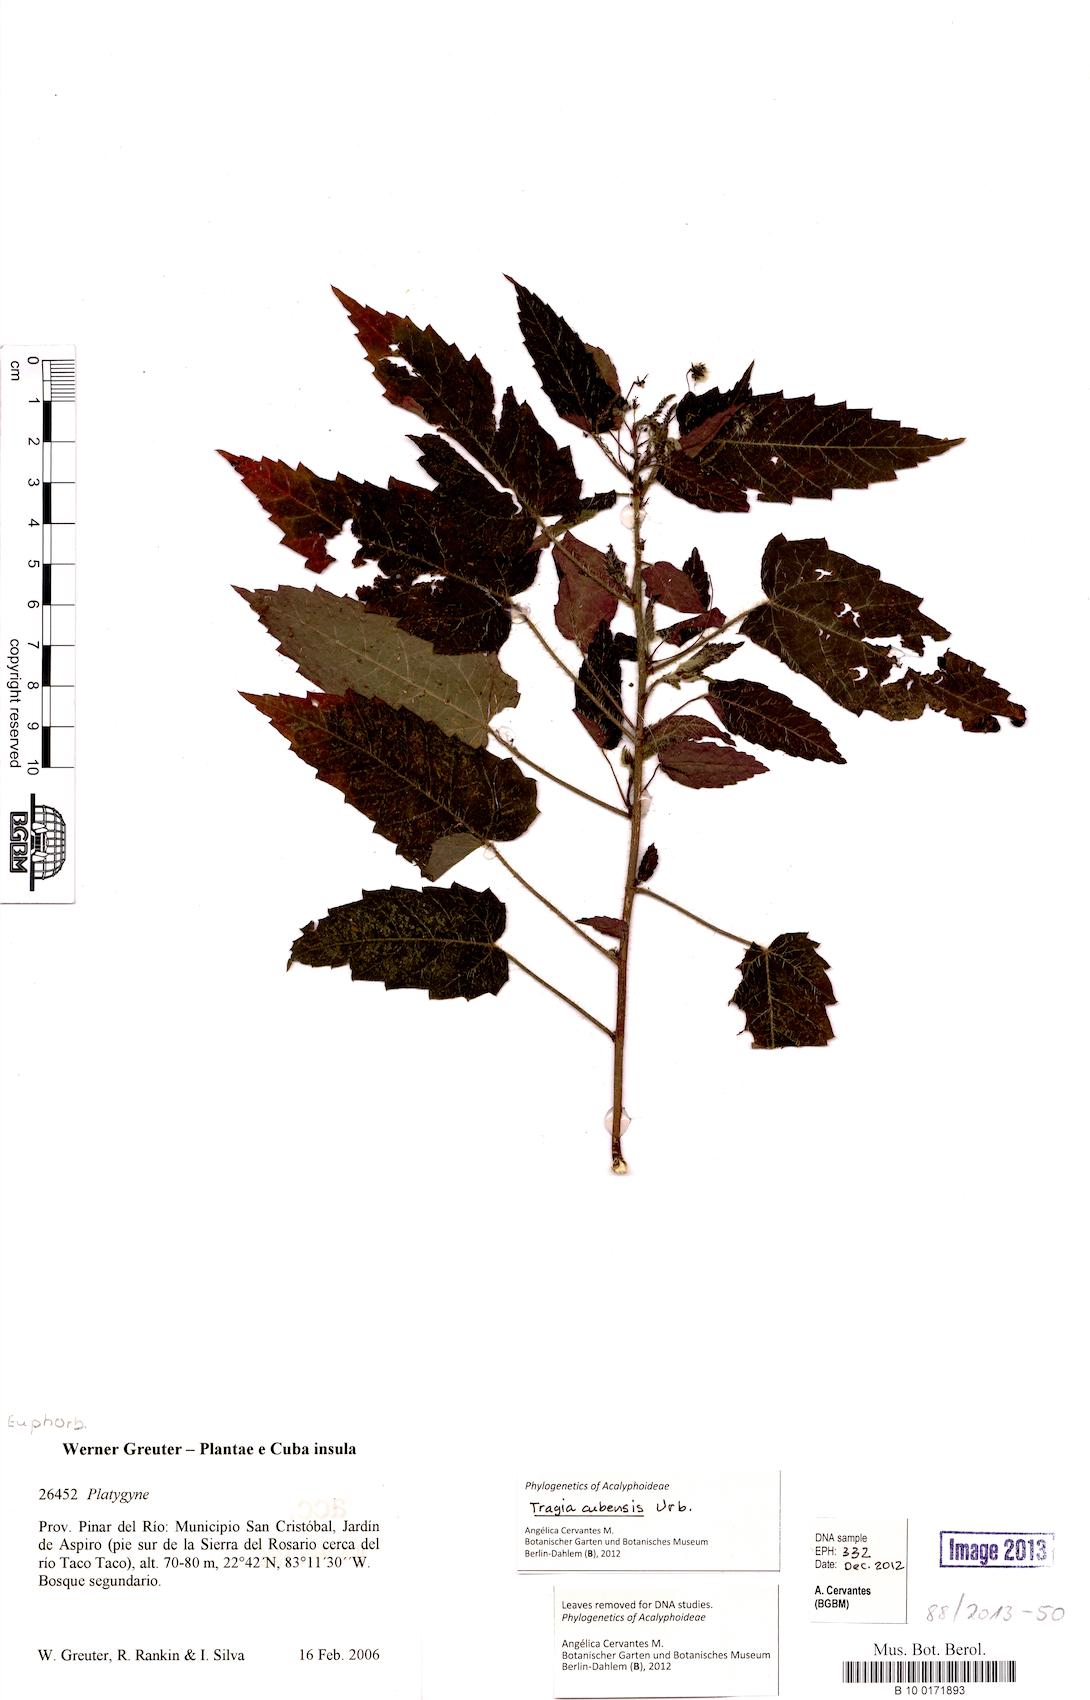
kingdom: Plantae
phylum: Tracheophyta
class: Magnoliopsida
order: Malpighiales
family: Euphorbiaceae
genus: Tragia
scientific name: Tragia cubensis
